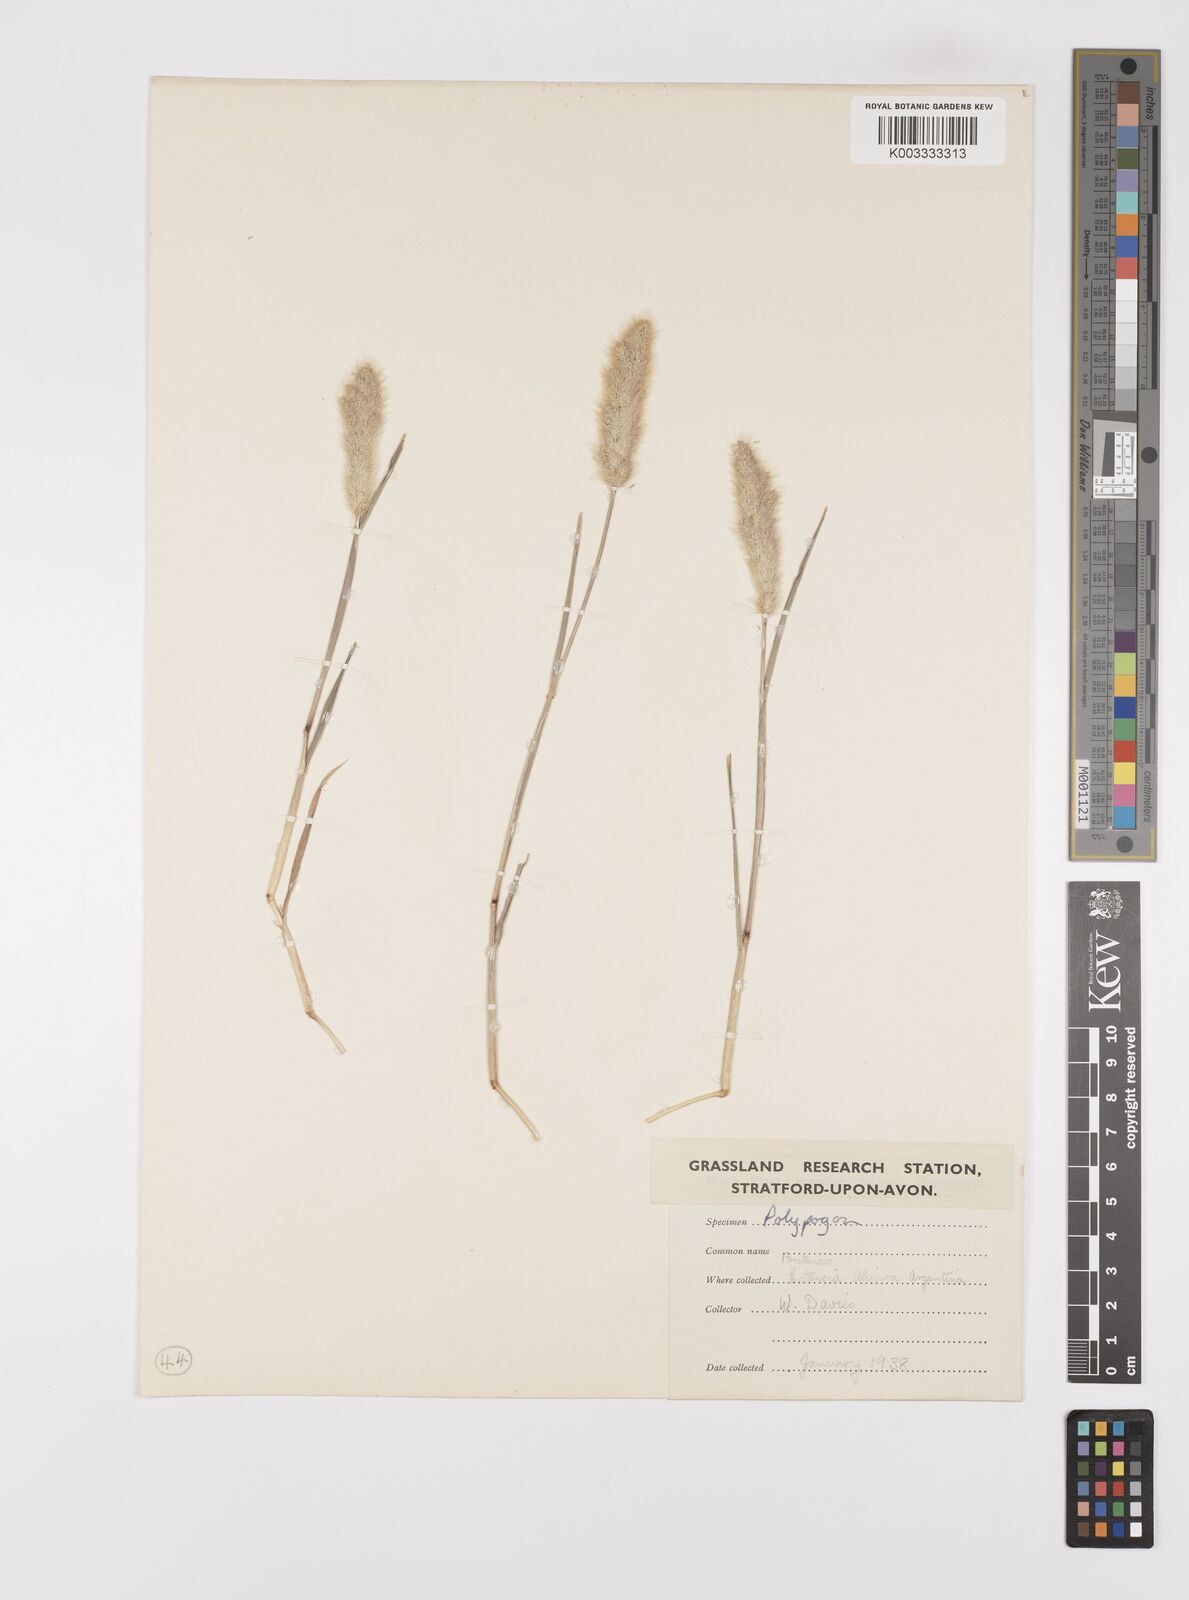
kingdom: Plantae
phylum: Tracheophyta
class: Liliopsida
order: Poales
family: Poaceae
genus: Polypogon
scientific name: Polypogon monspeliensis
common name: Annual rabbitsfoot grass
